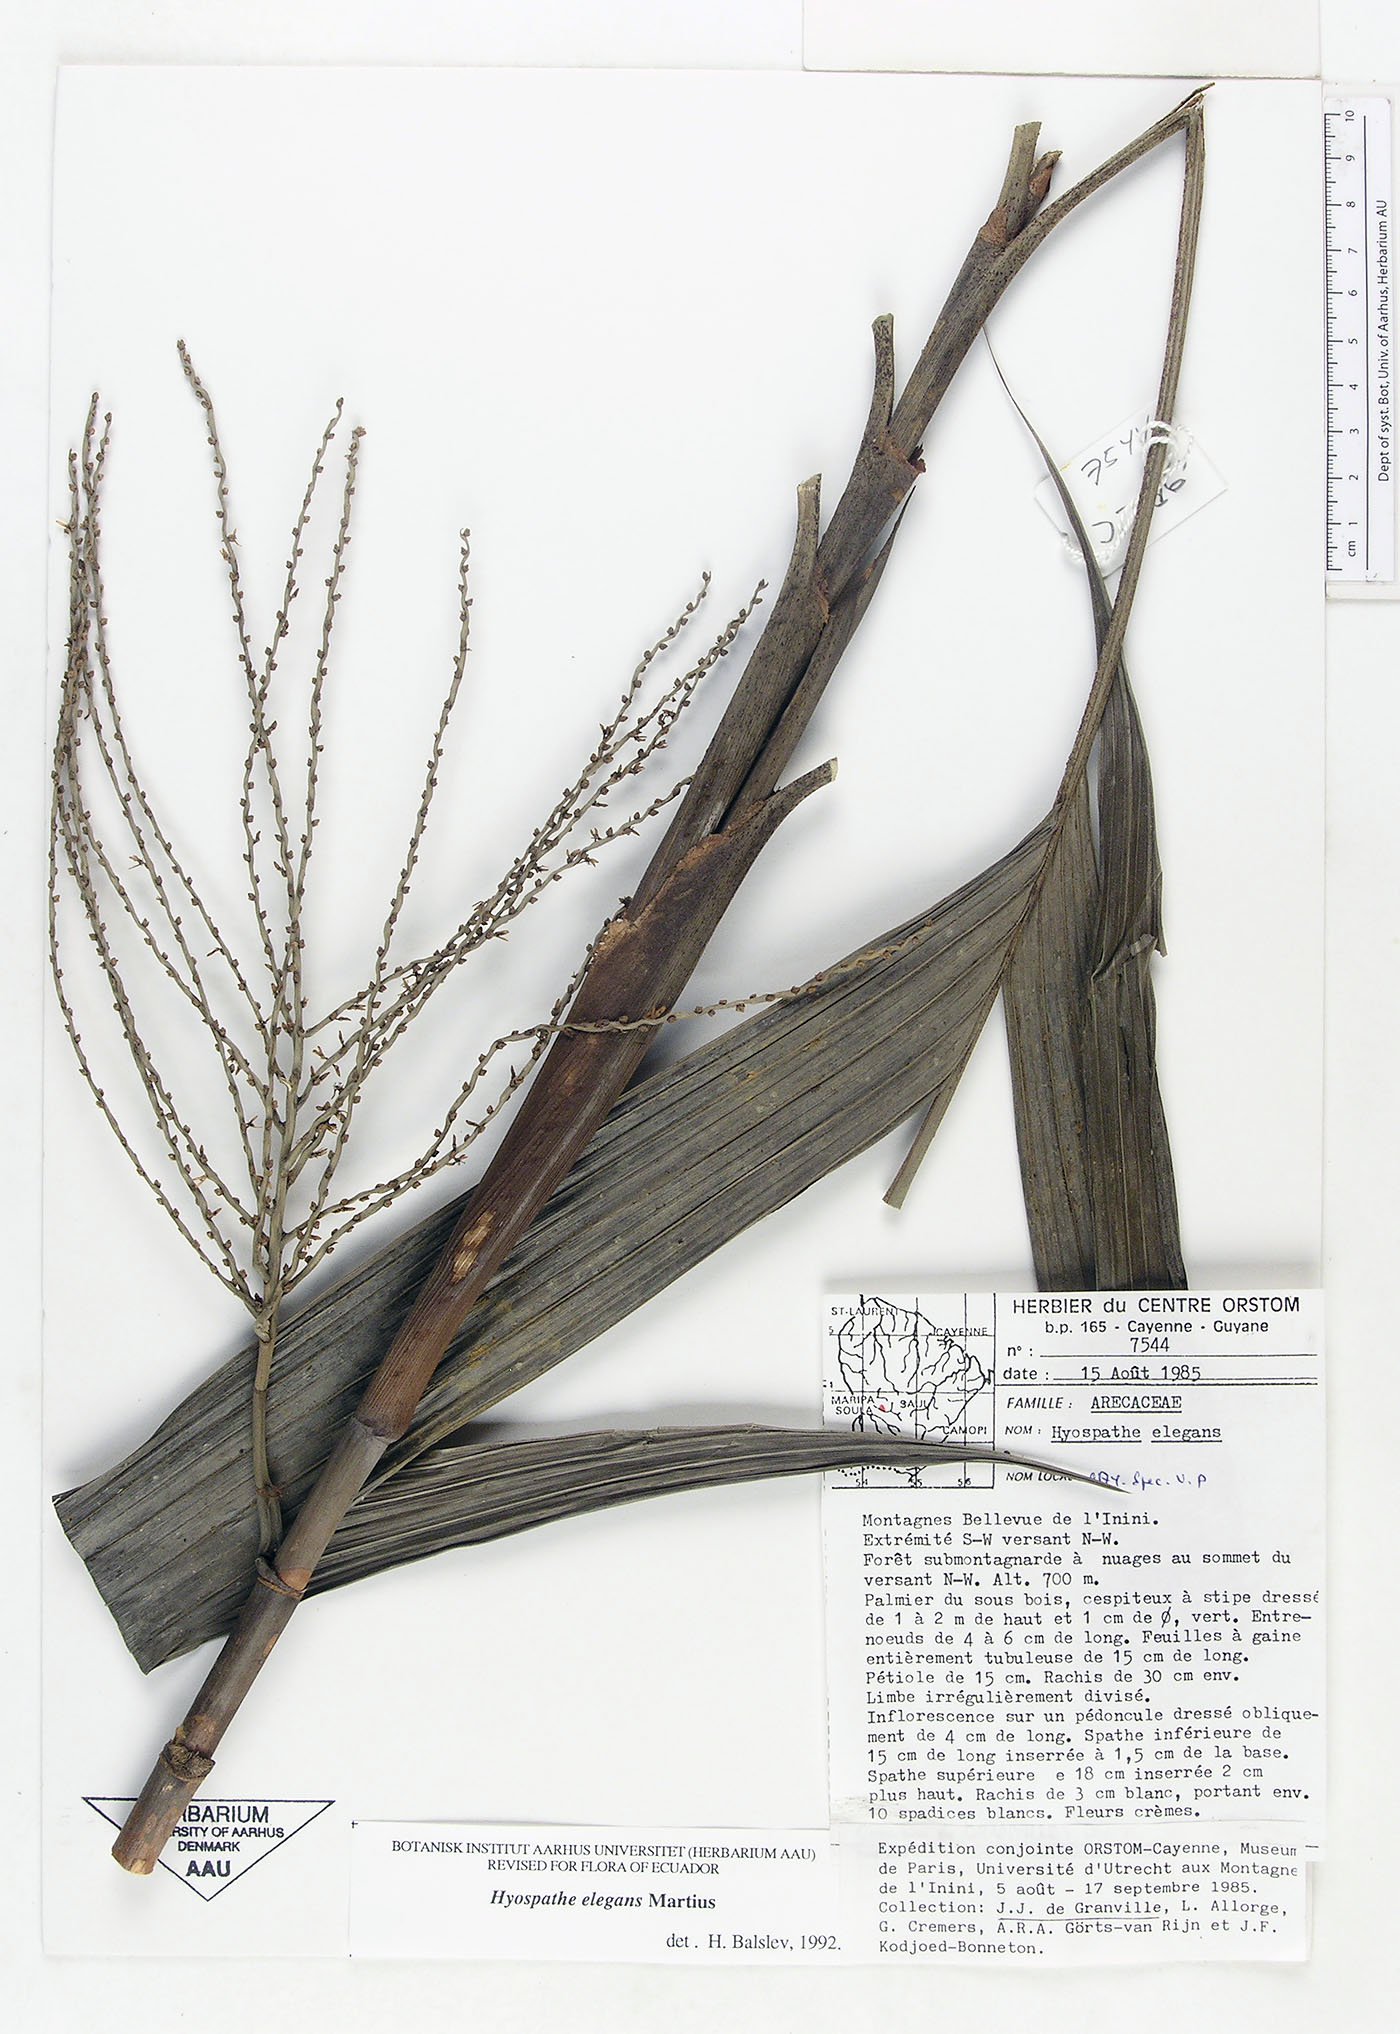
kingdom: Plantae
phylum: Tracheophyta
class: Liliopsida
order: Arecales
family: Arecaceae
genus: Hyospathe
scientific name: Hyospathe elegans
